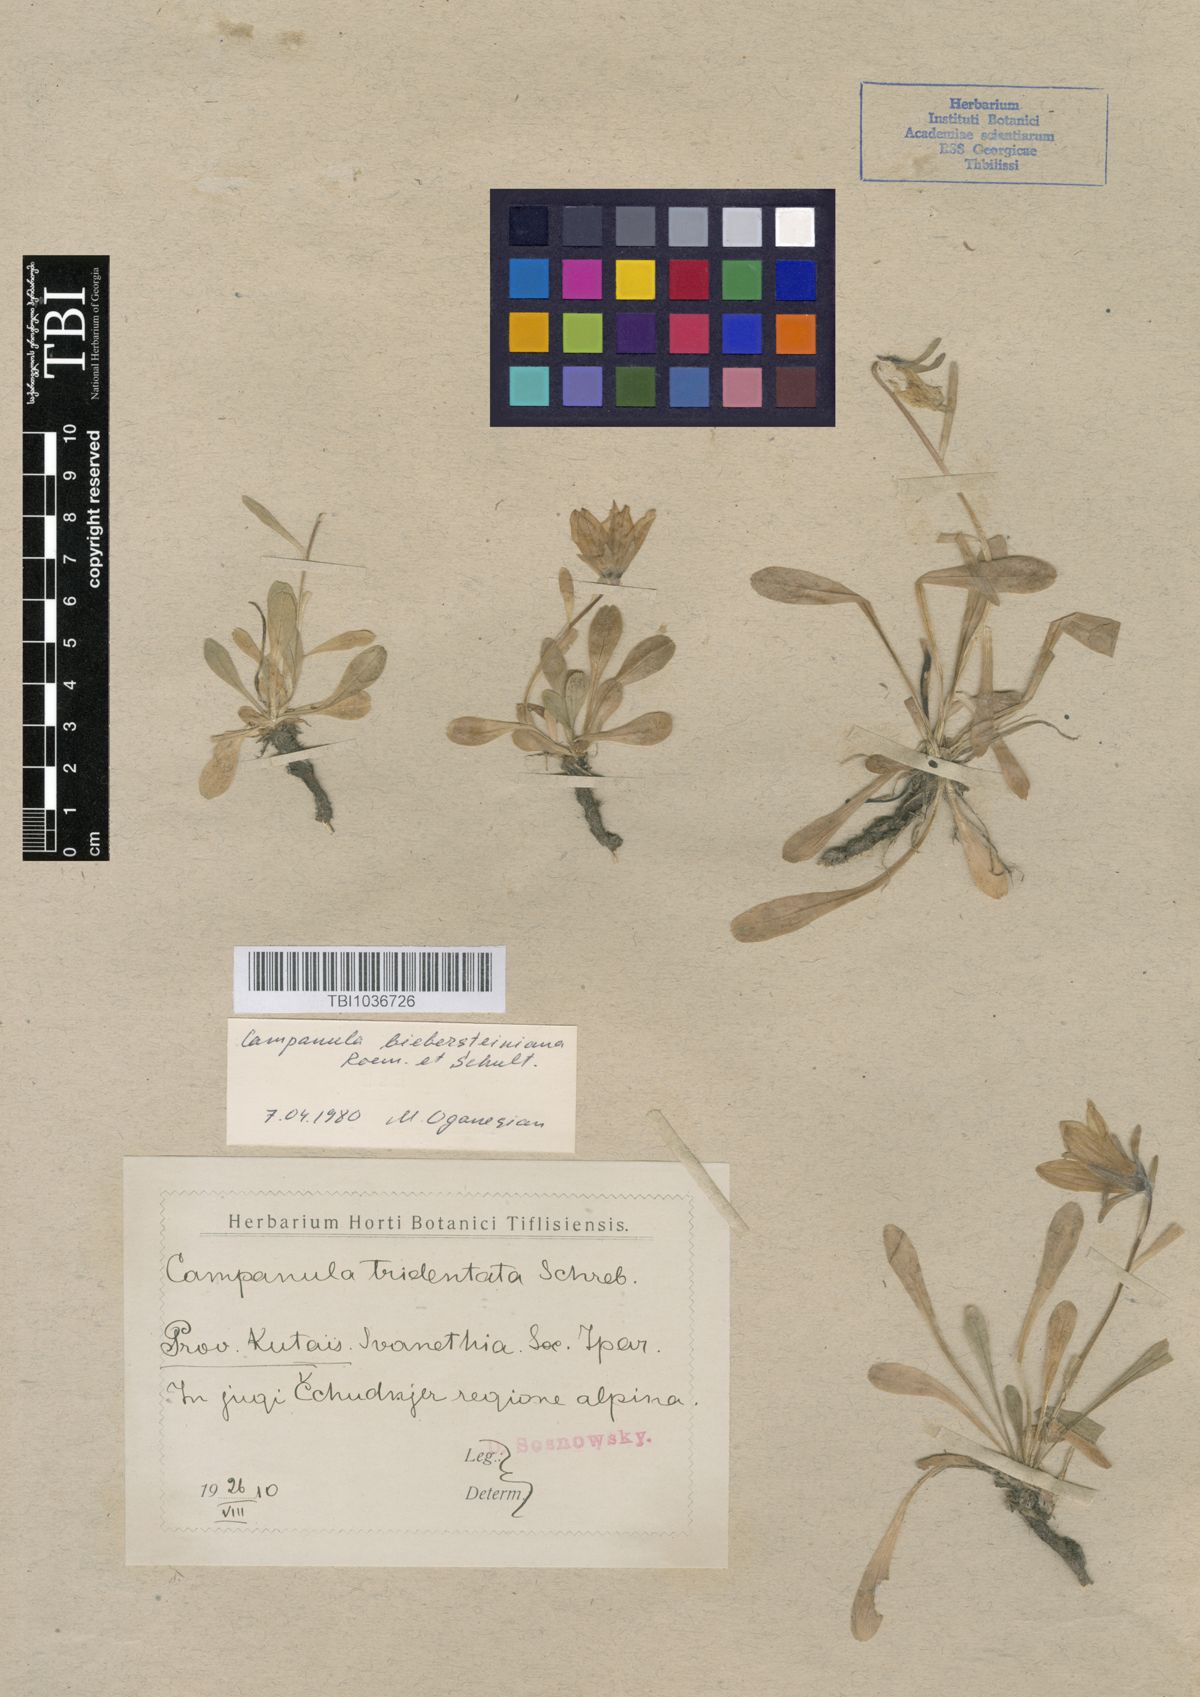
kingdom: Plantae
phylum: Tracheophyta
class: Magnoliopsida
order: Asterales
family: Campanulaceae
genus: Campanula
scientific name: Campanula tridentata
